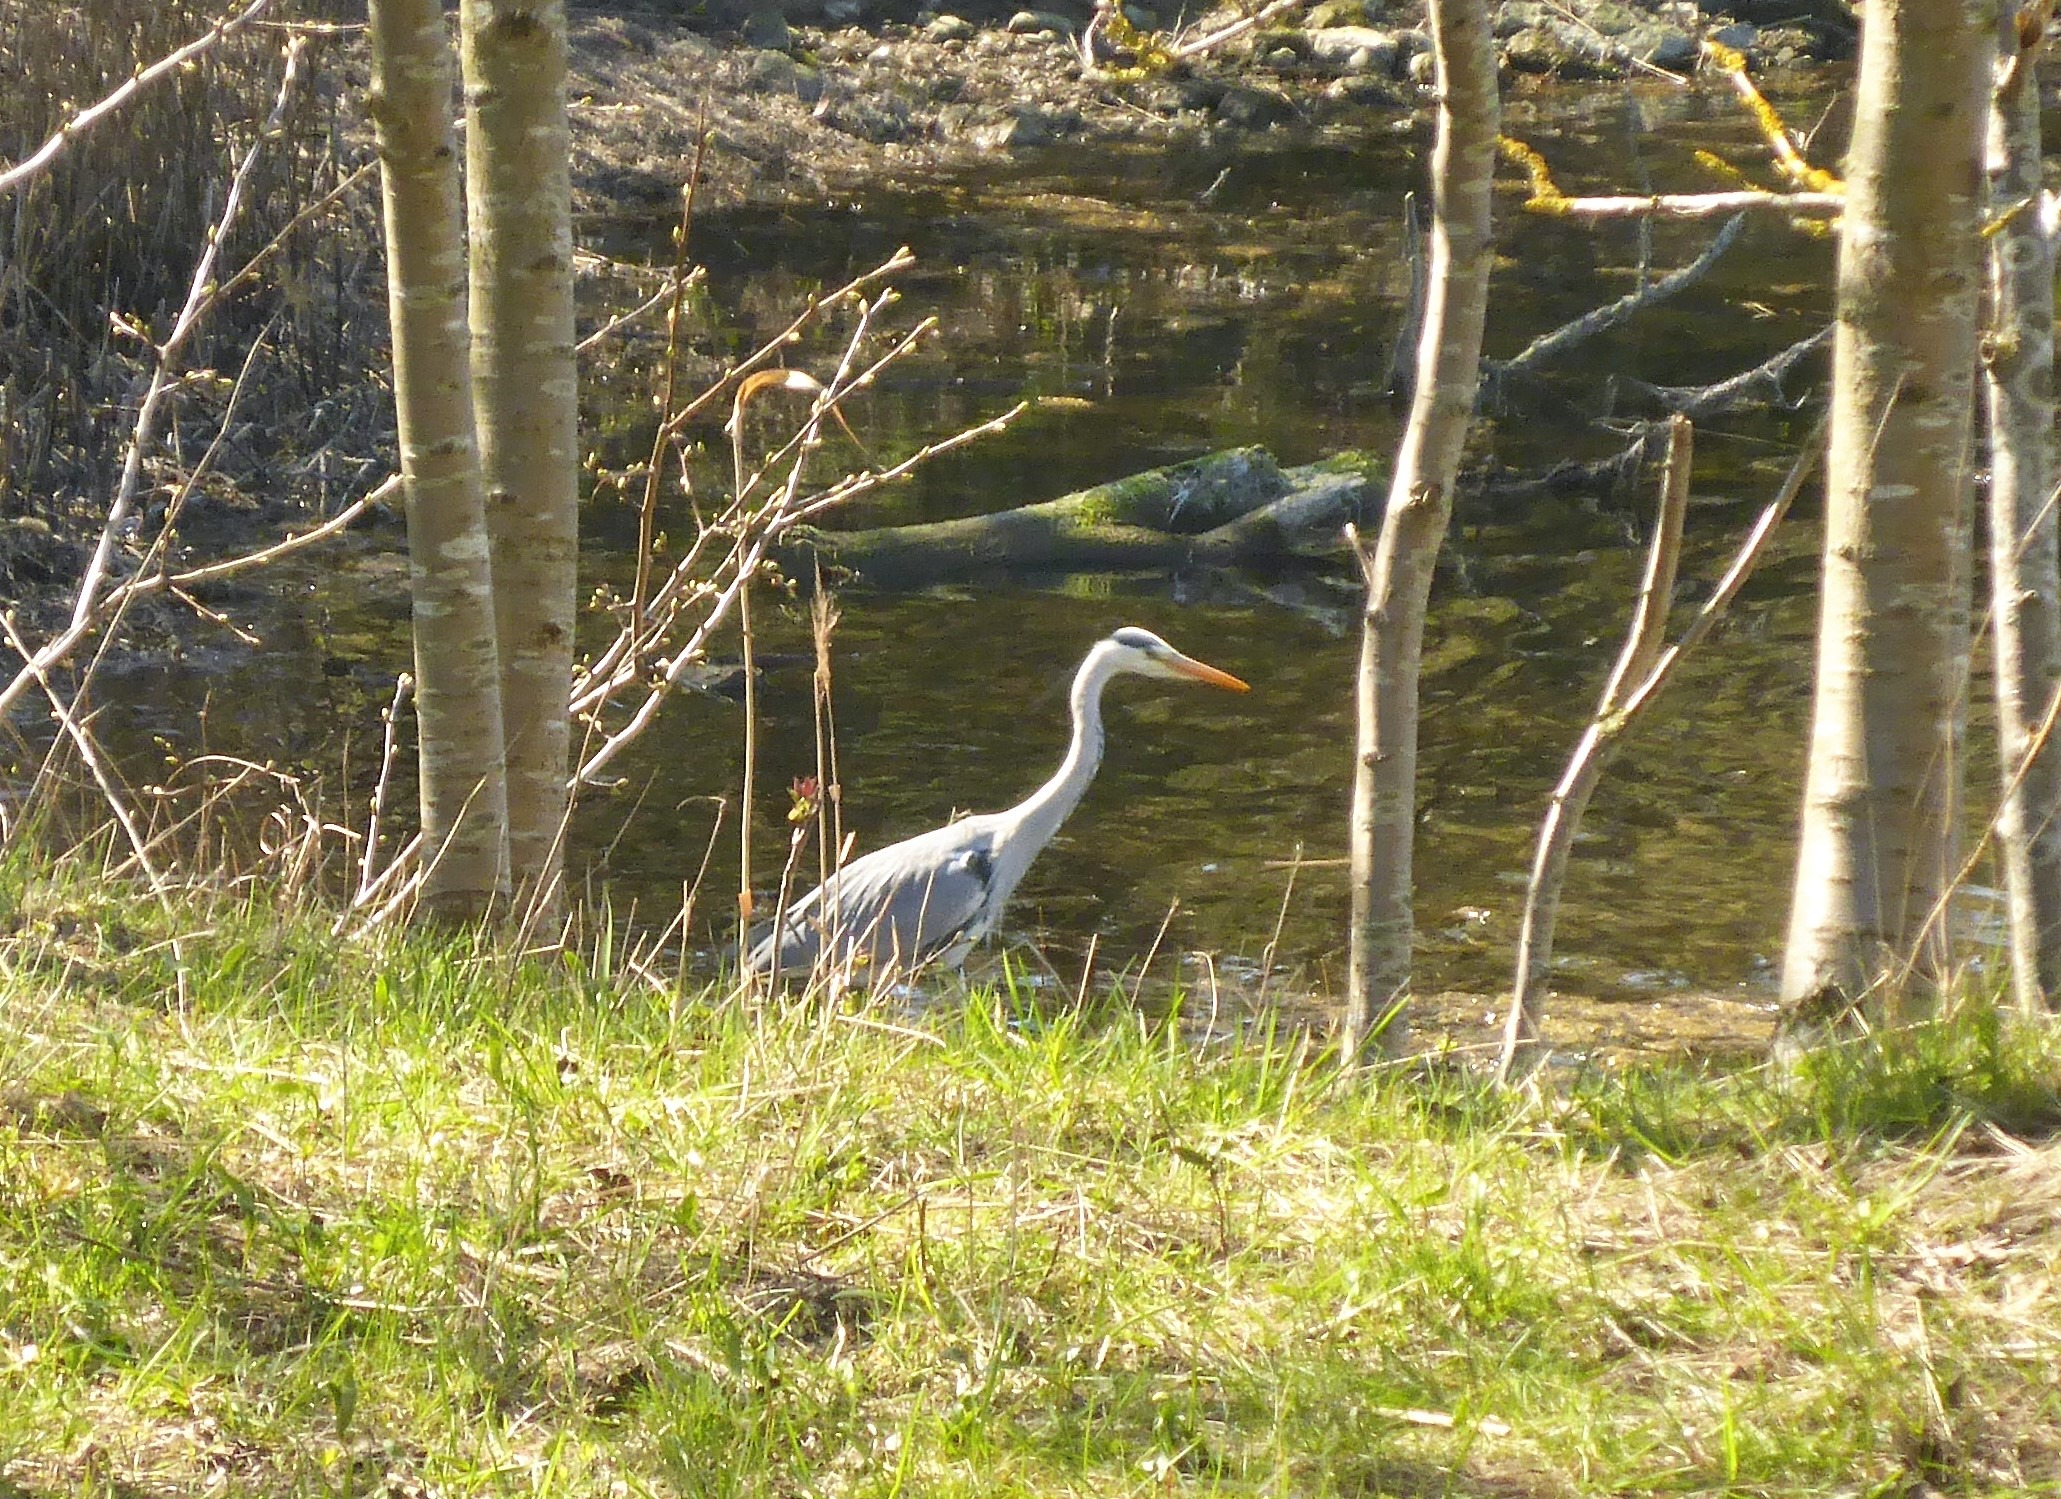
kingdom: Animalia
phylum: Chordata
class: Aves
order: Pelecaniformes
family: Ardeidae
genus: Ardea
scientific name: Ardea cinerea
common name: Fiskehejre
